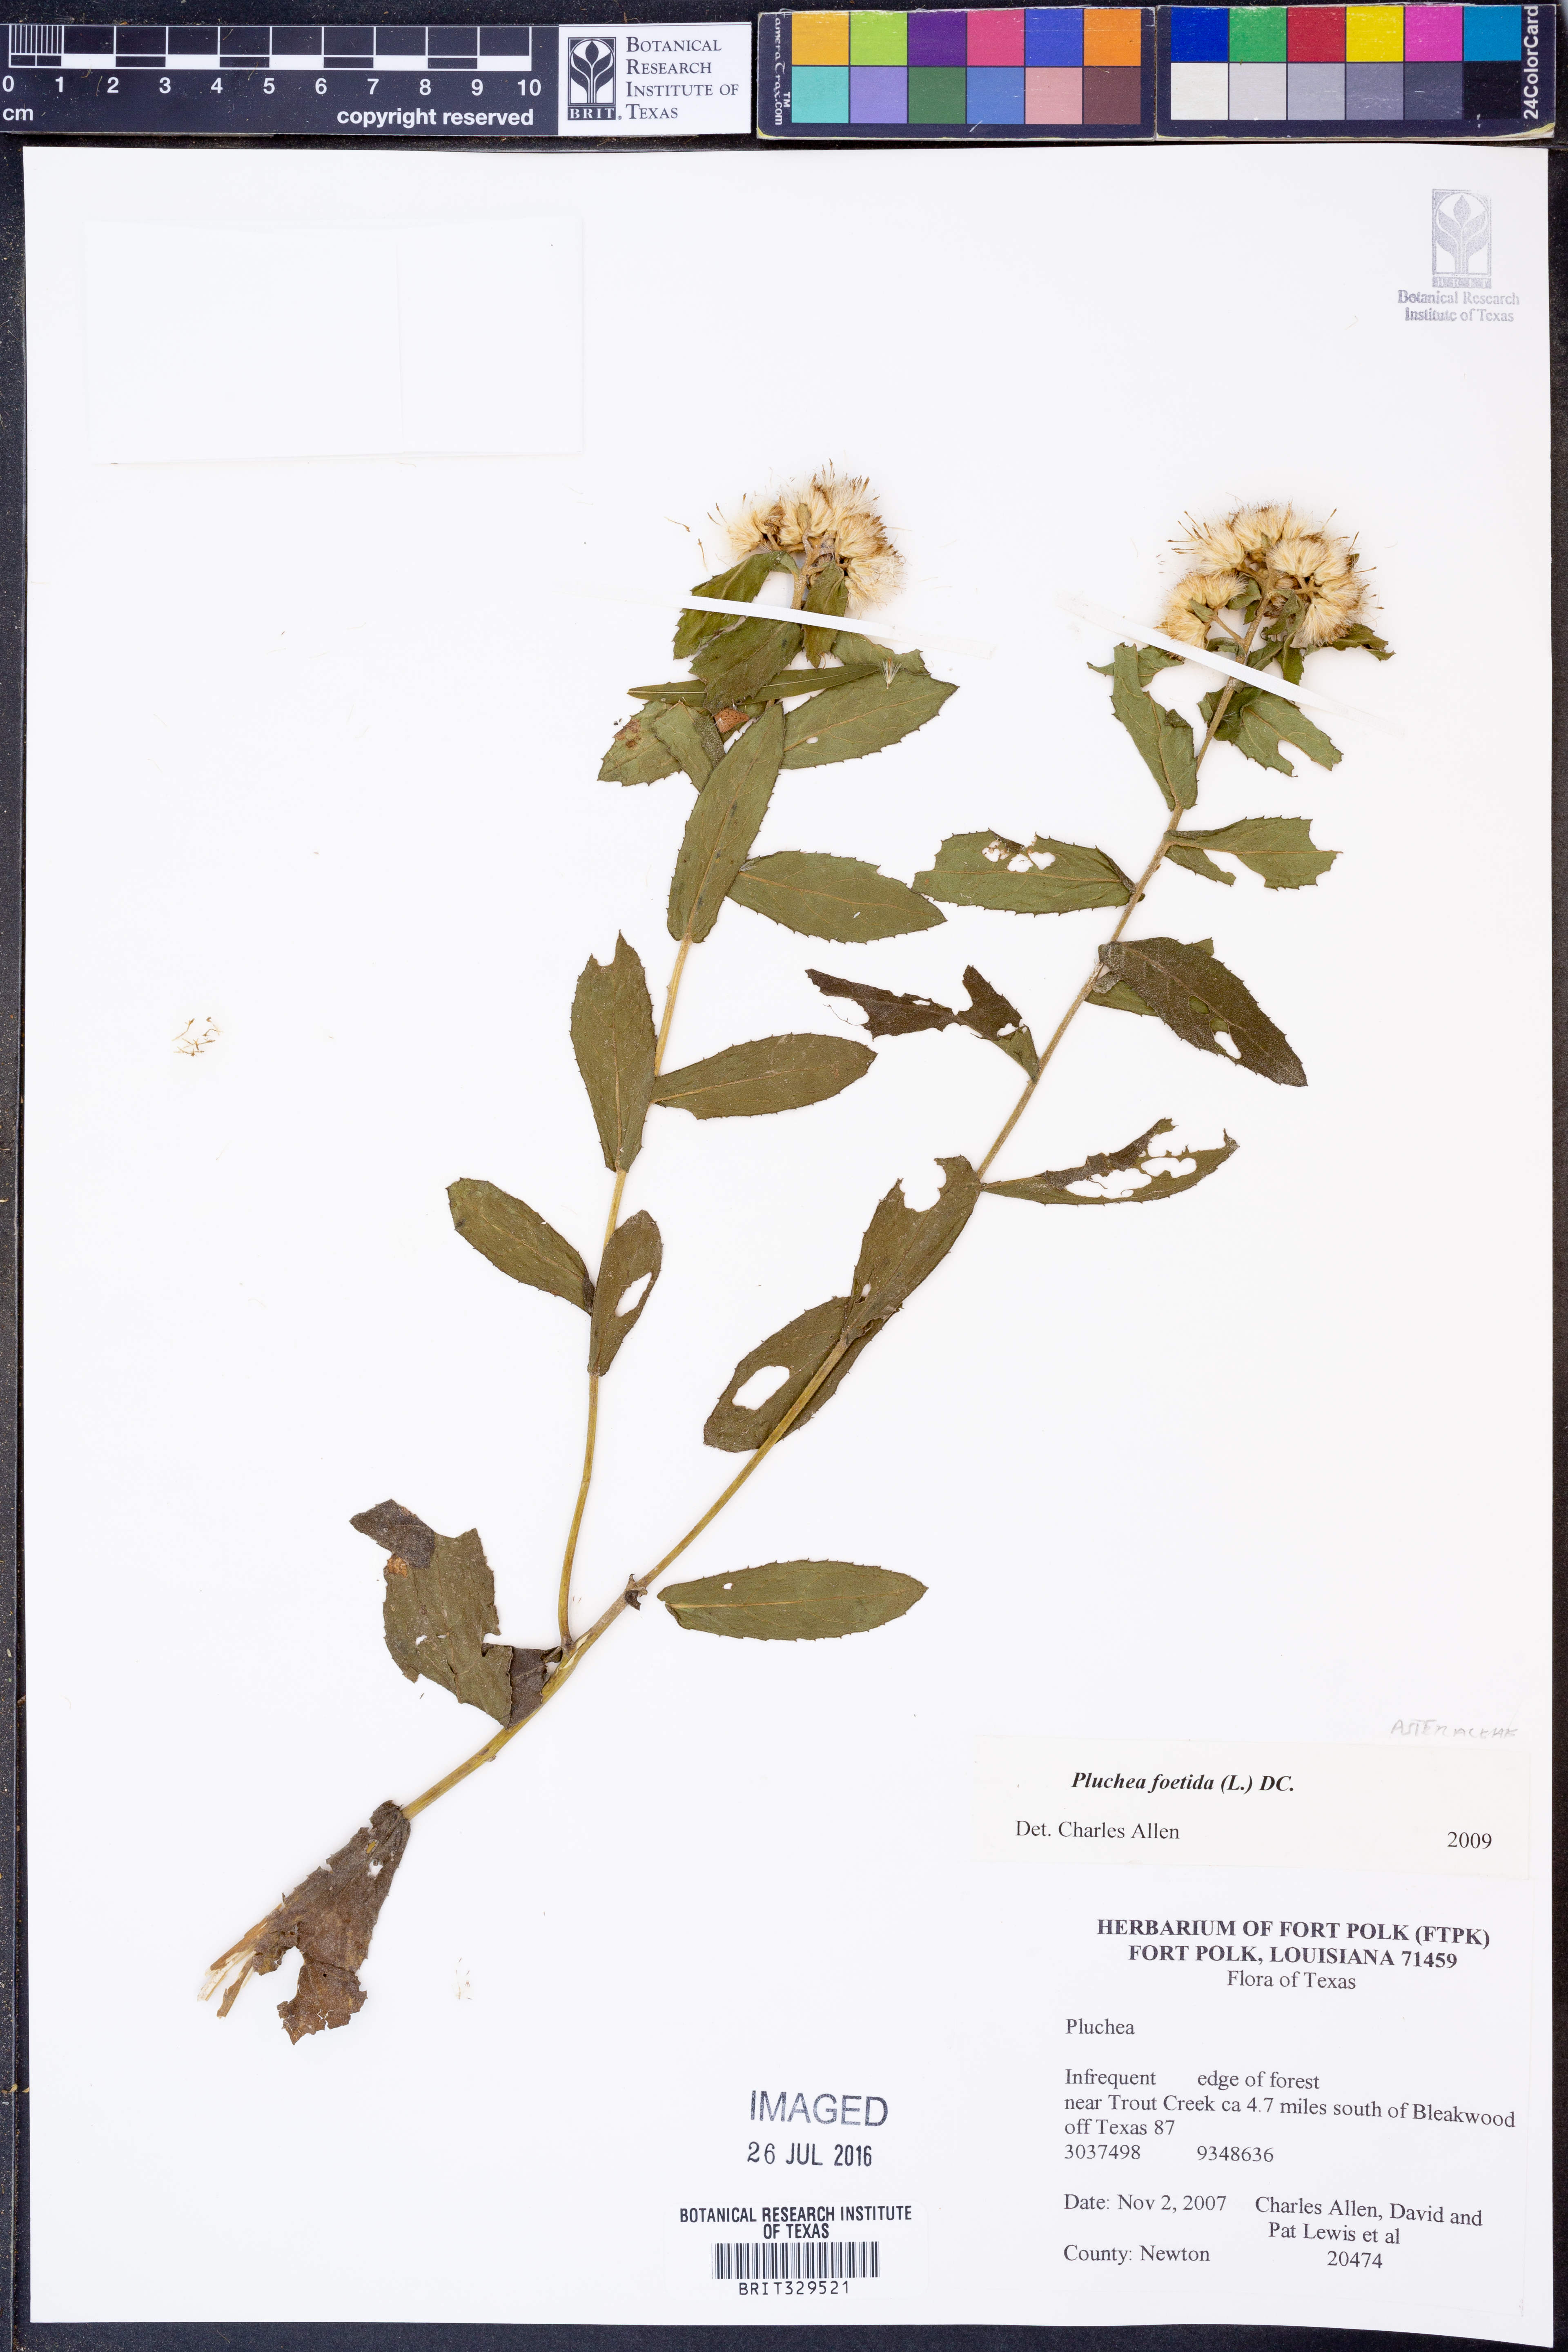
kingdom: Plantae
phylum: Tracheophyta
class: Magnoliopsida
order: Asterales
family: Asteraceae
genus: Pluchea
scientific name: Pluchea foetida
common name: Stinking camphorweed
